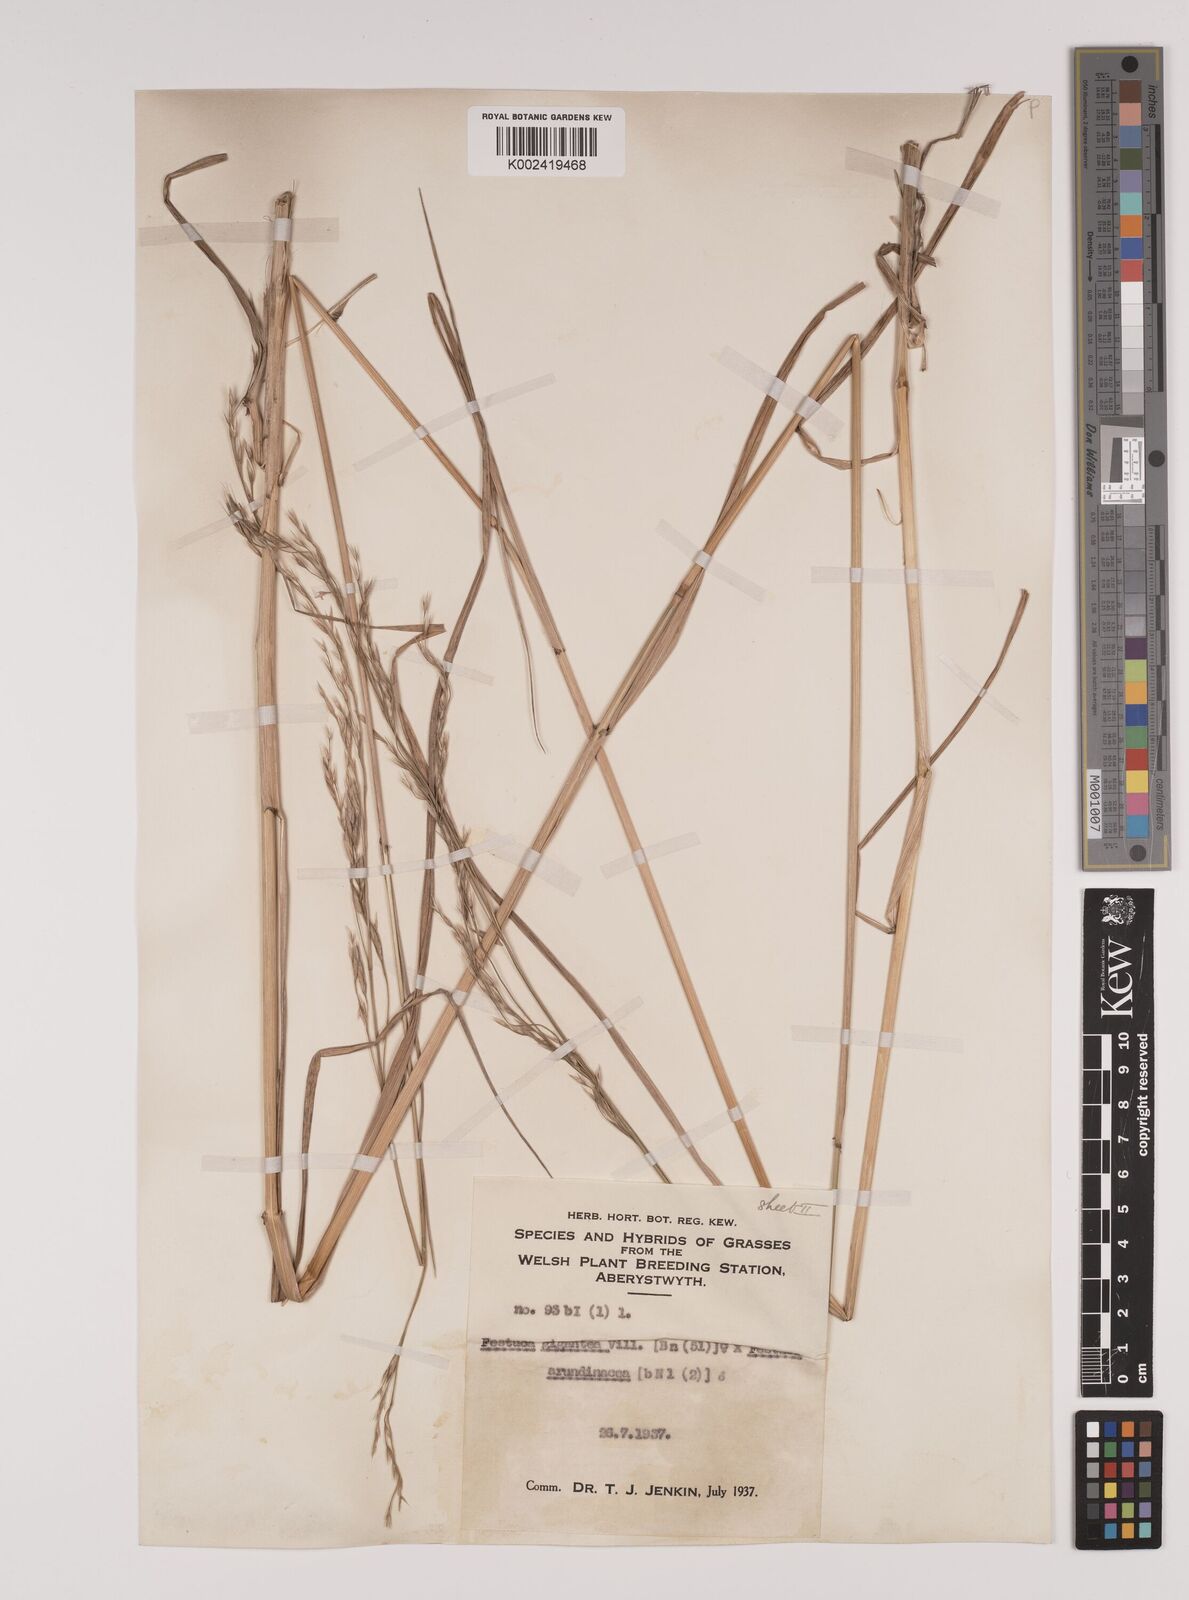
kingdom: Plantae
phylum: Tracheophyta
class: Liliopsida
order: Poales
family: Poaceae
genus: Lolium
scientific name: Lolium giganteum
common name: Giant fescue
